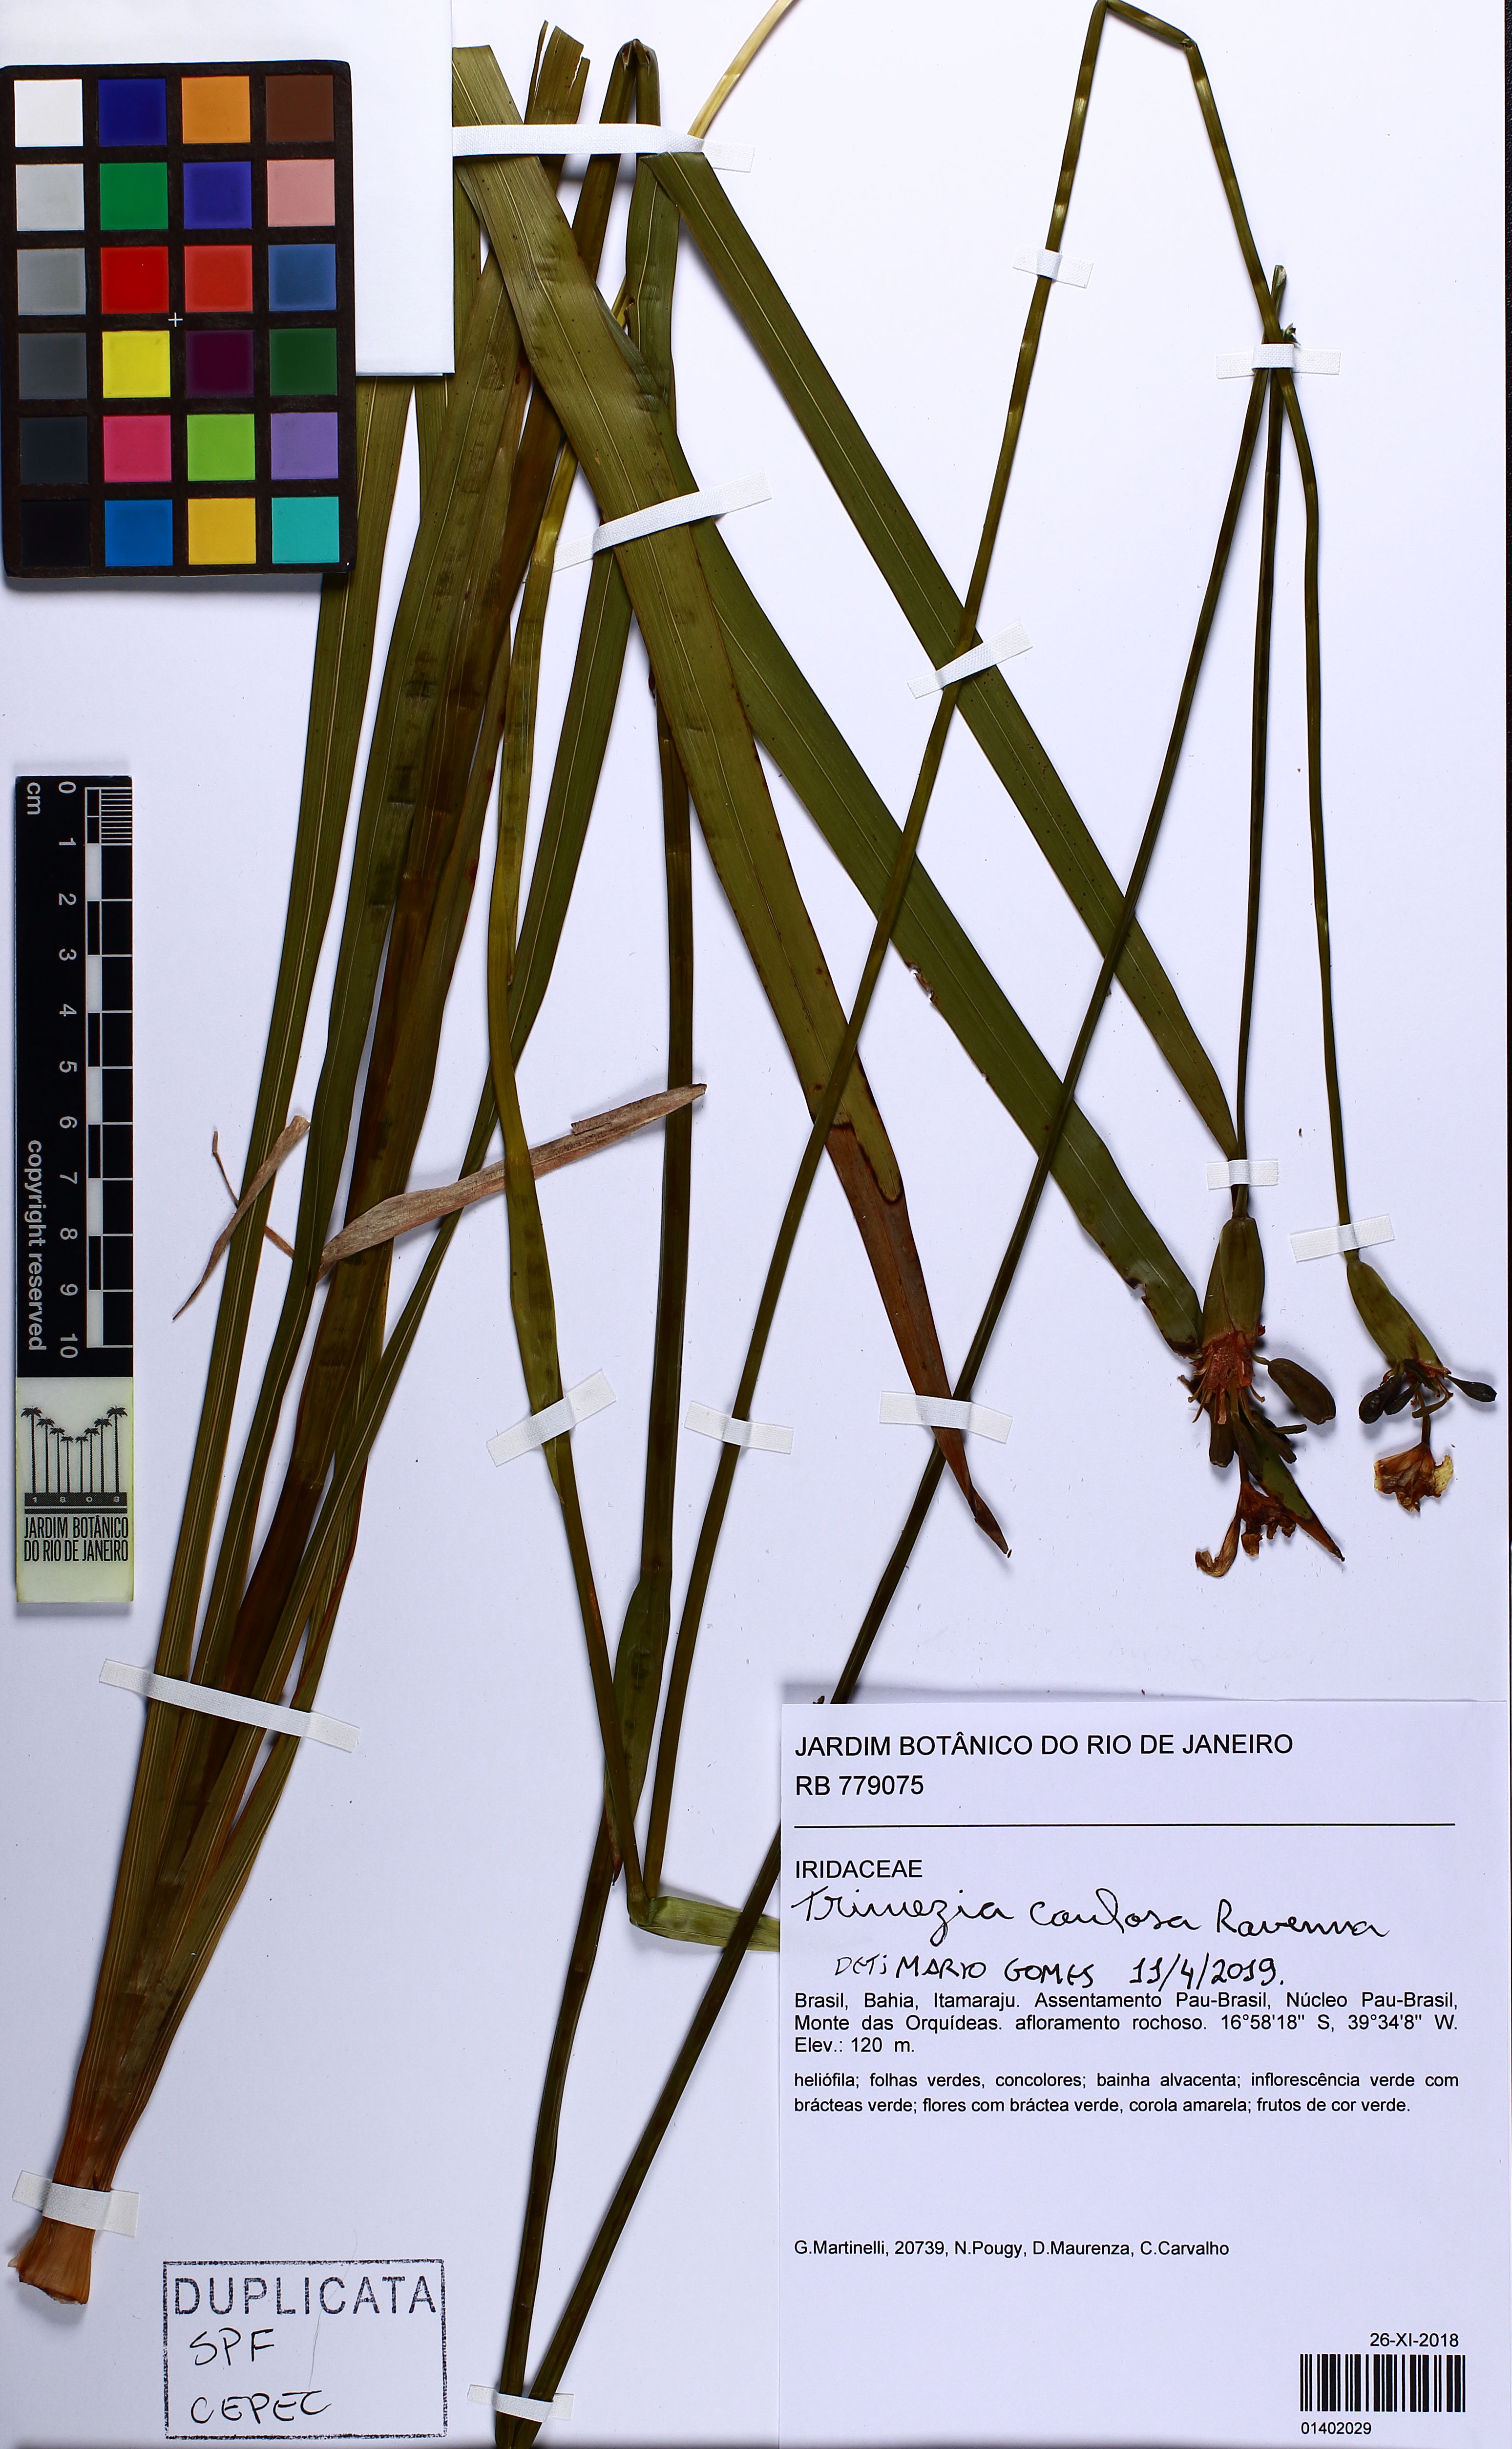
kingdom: Plantae
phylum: Tracheophyta
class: Liliopsida
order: Asparagales
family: Iridaceae
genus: Trimezia
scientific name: Trimezia caulosa
